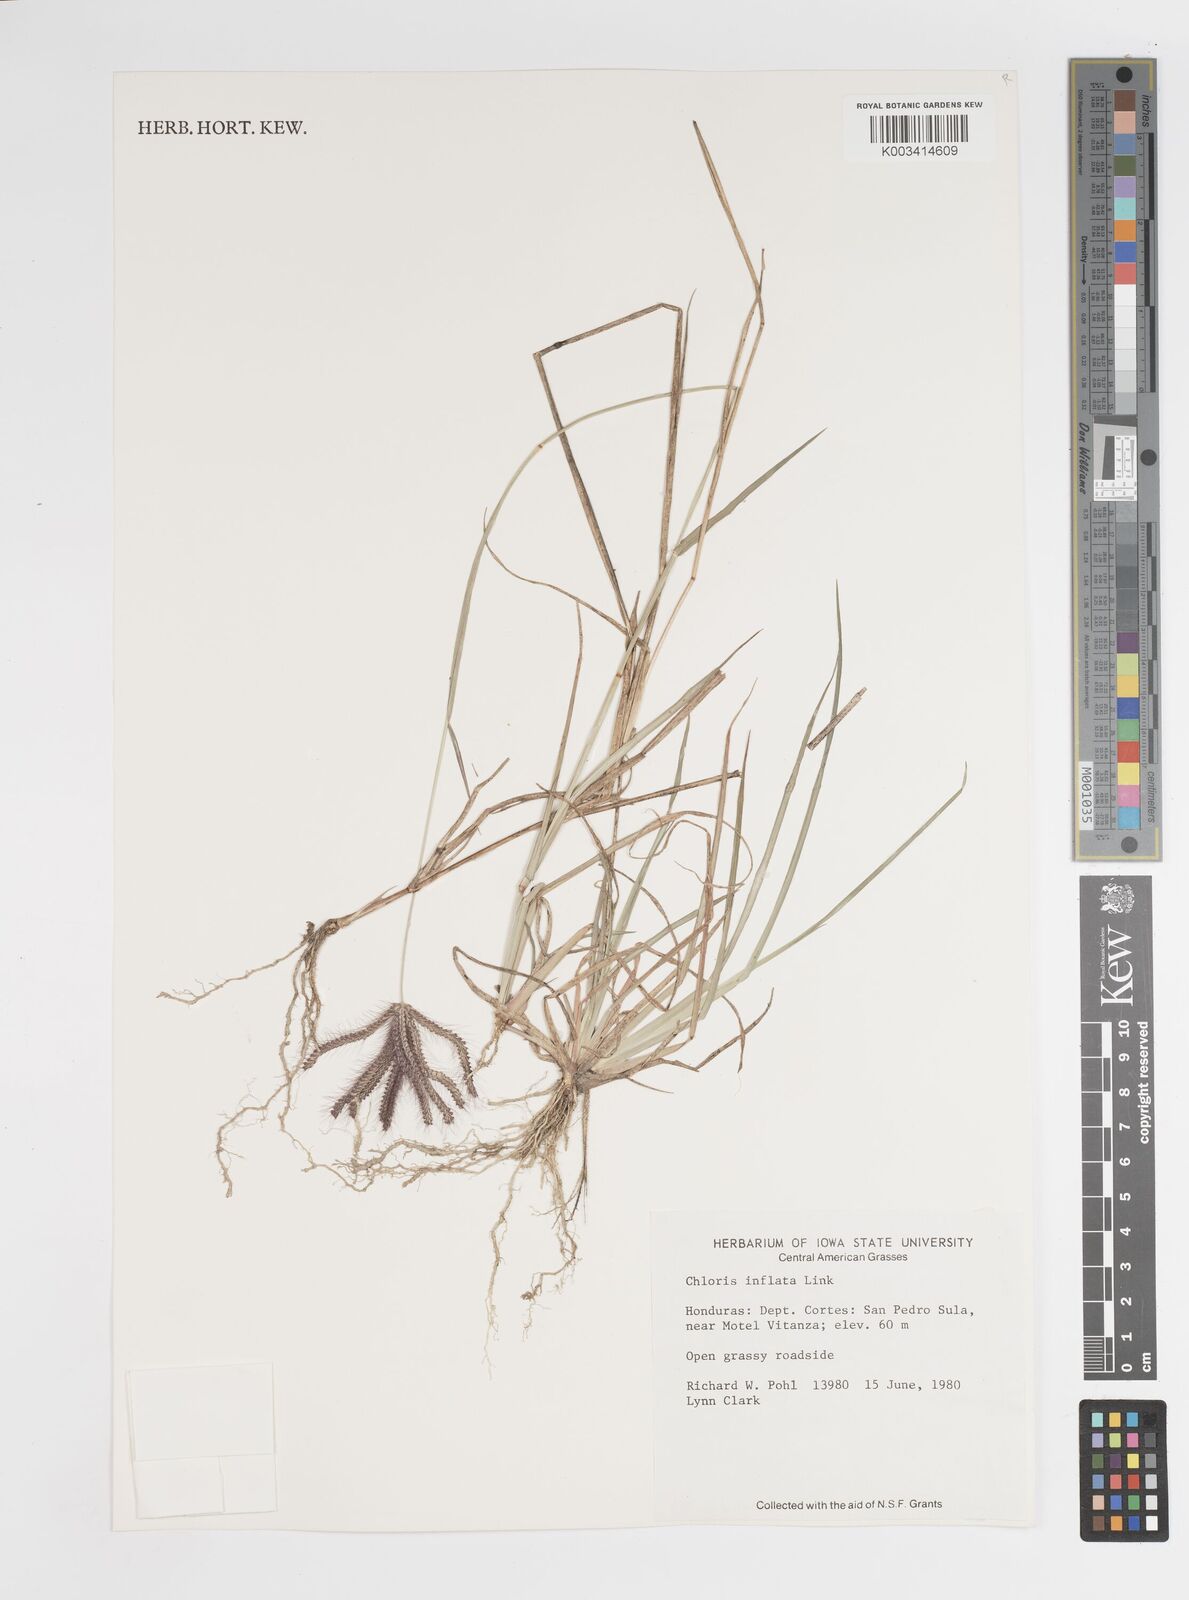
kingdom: Plantae
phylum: Tracheophyta
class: Liliopsida
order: Poales
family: Poaceae
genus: Stapfochloa
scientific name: Stapfochloa elata
